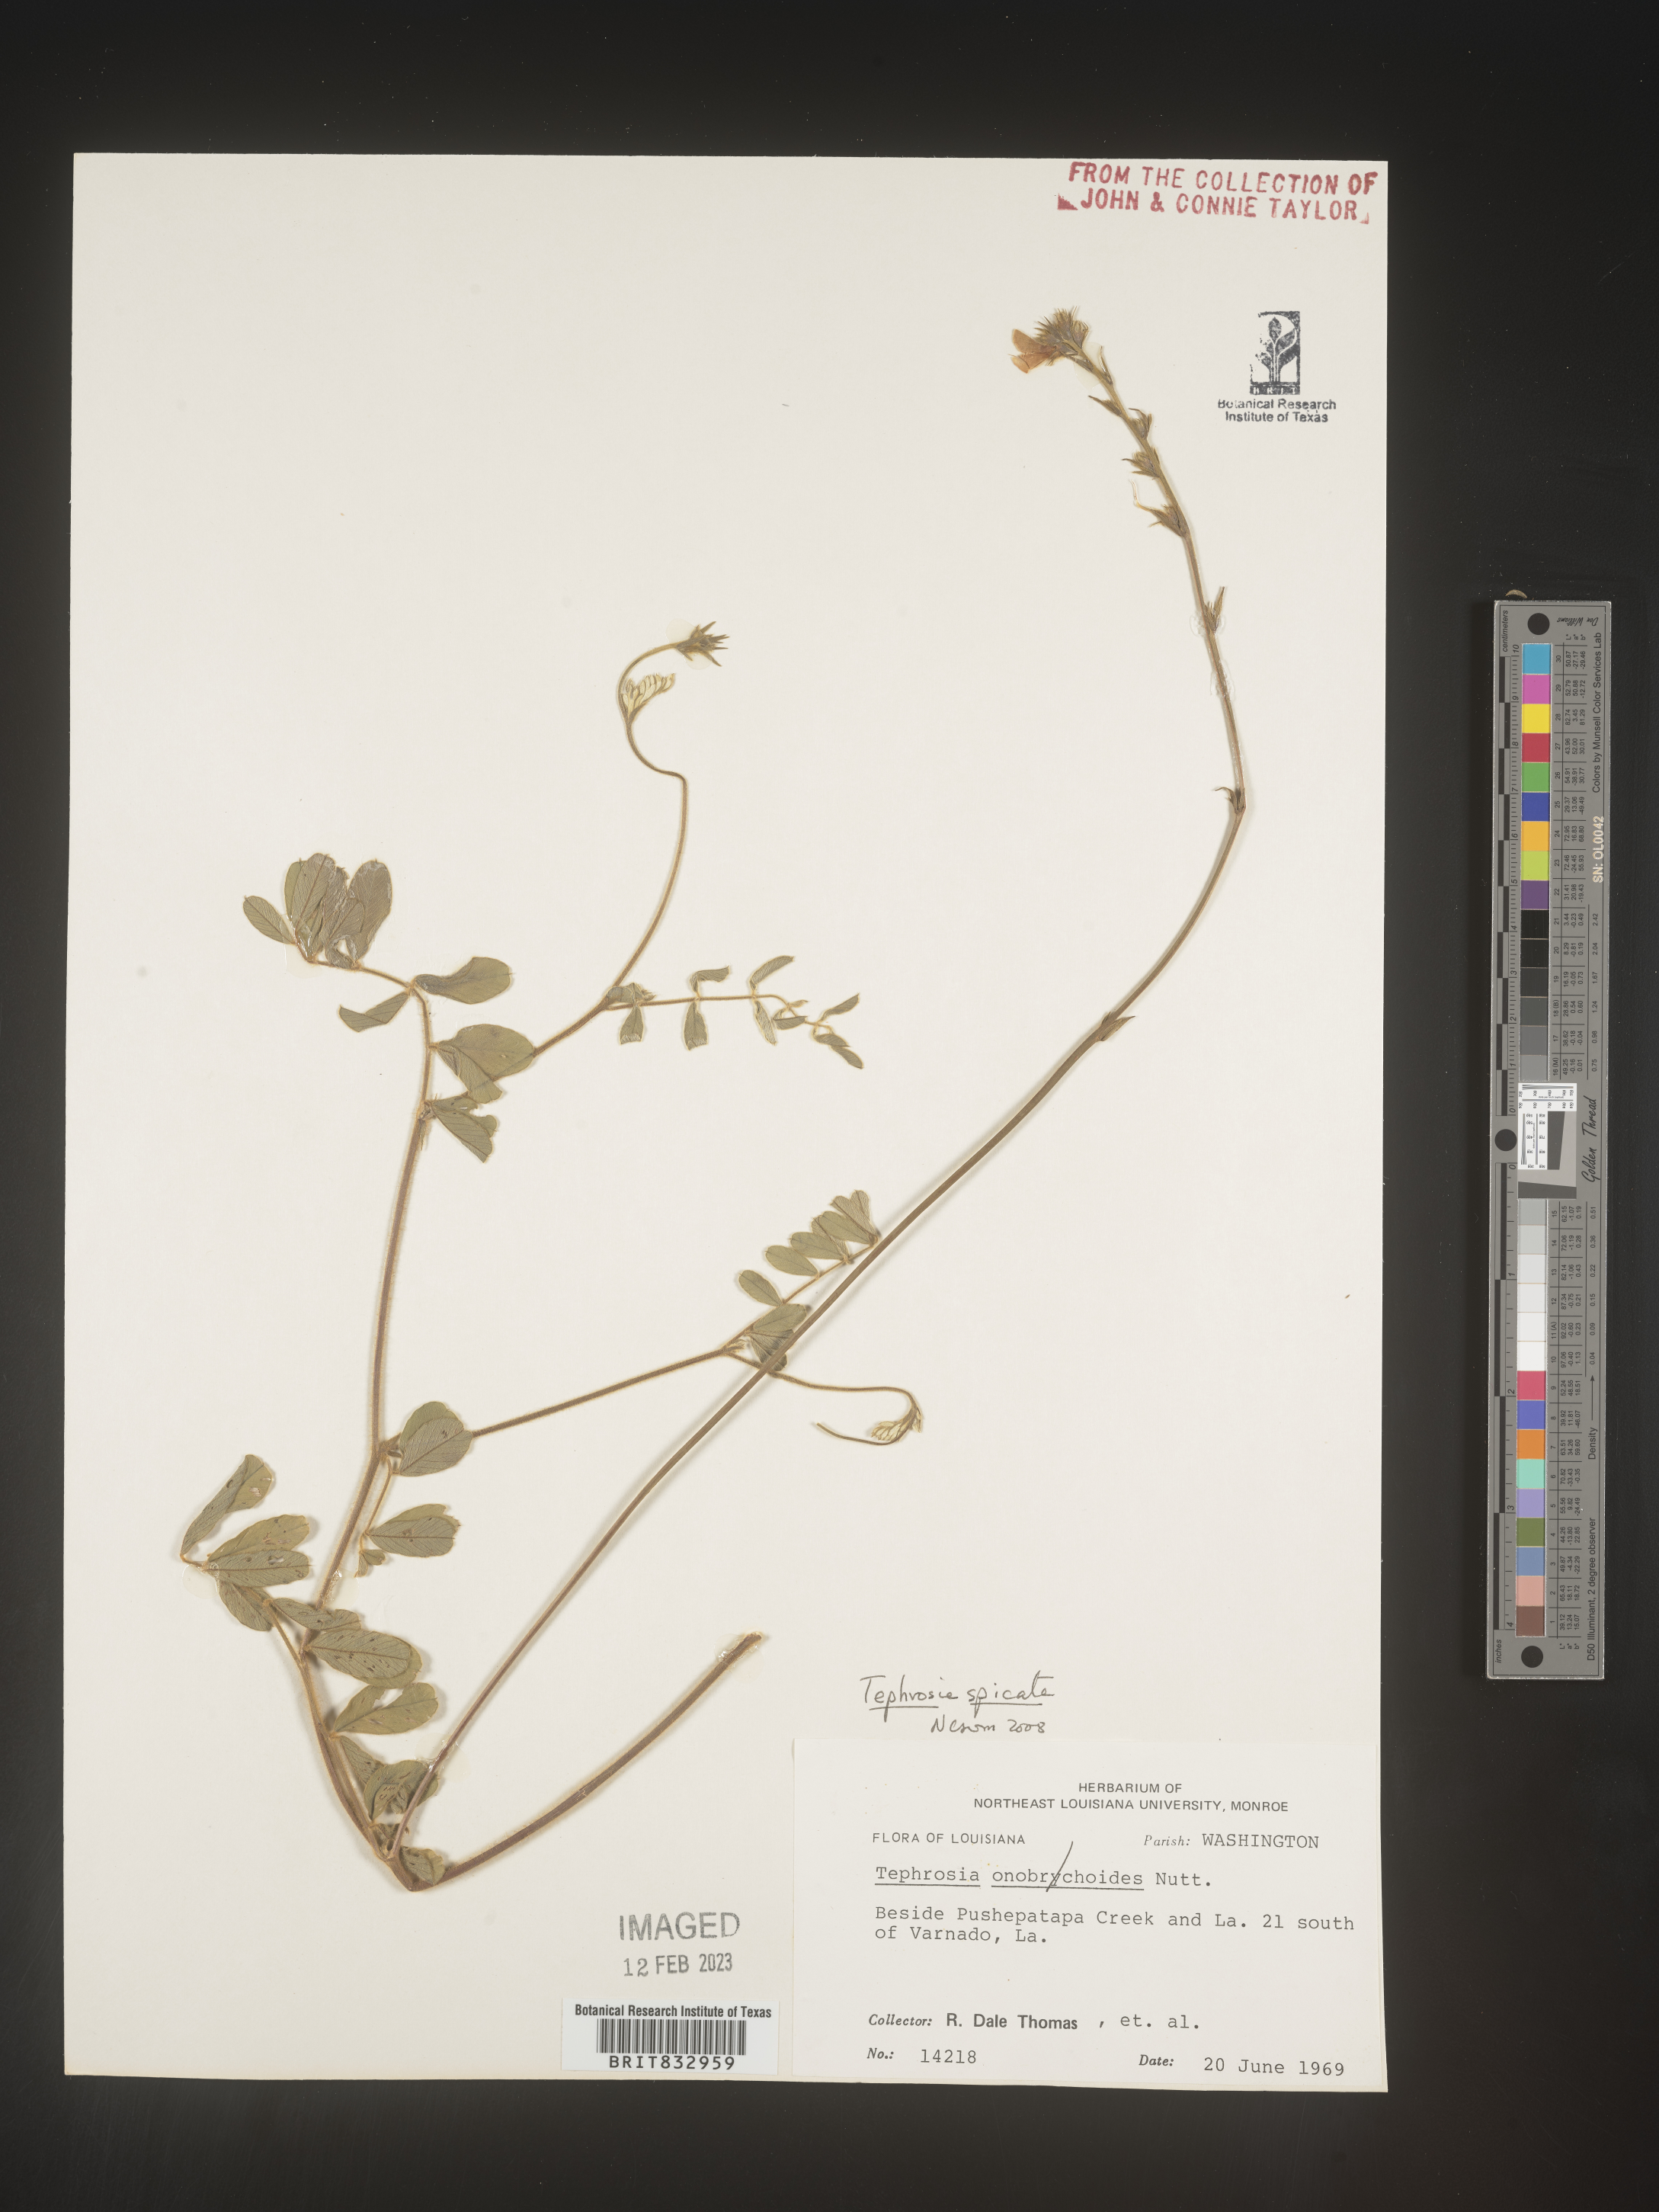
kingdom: Plantae
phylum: Tracheophyta
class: Magnoliopsida
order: Fabales
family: Fabaceae
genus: Tephrosia
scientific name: Tephrosia spicata
